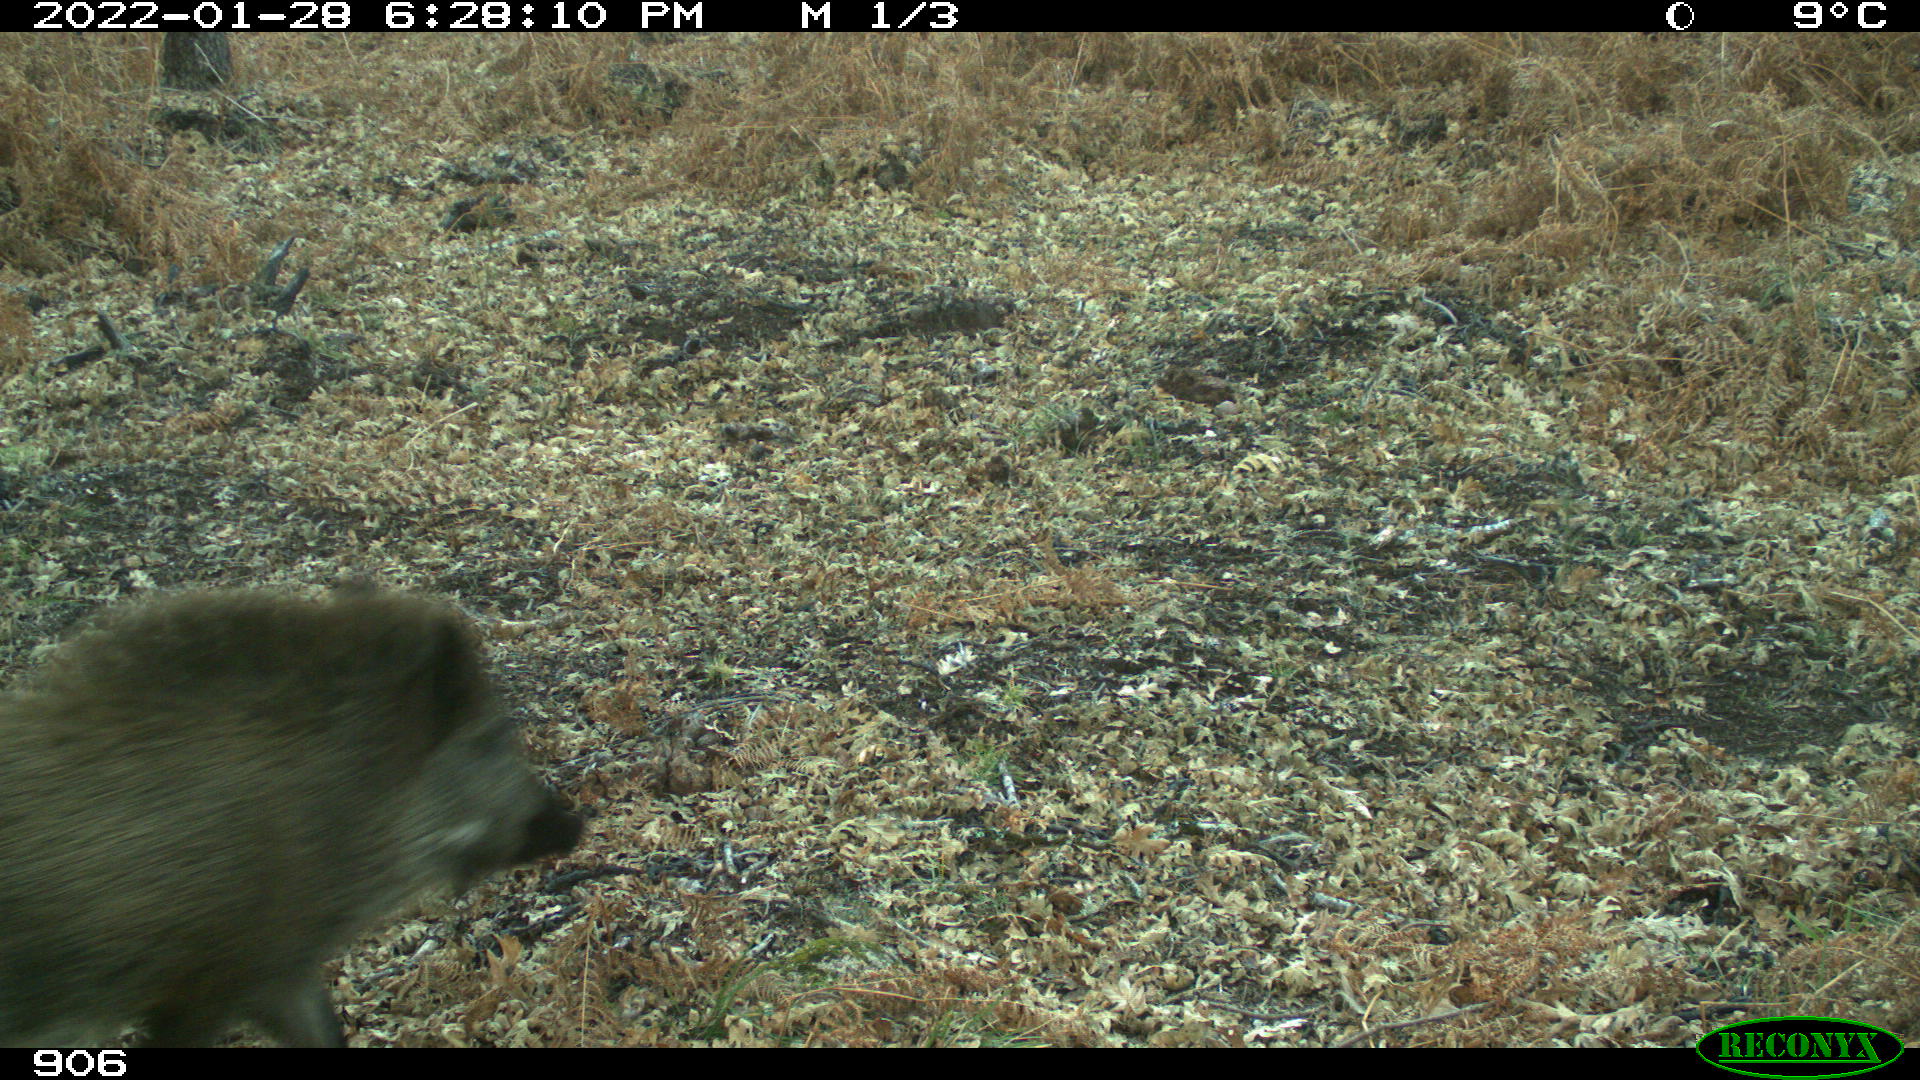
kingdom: Animalia
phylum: Chordata
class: Mammalia
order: Artiodactyla
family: Suidae
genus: Sus
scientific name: Sus scrofa
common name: Wild boar
